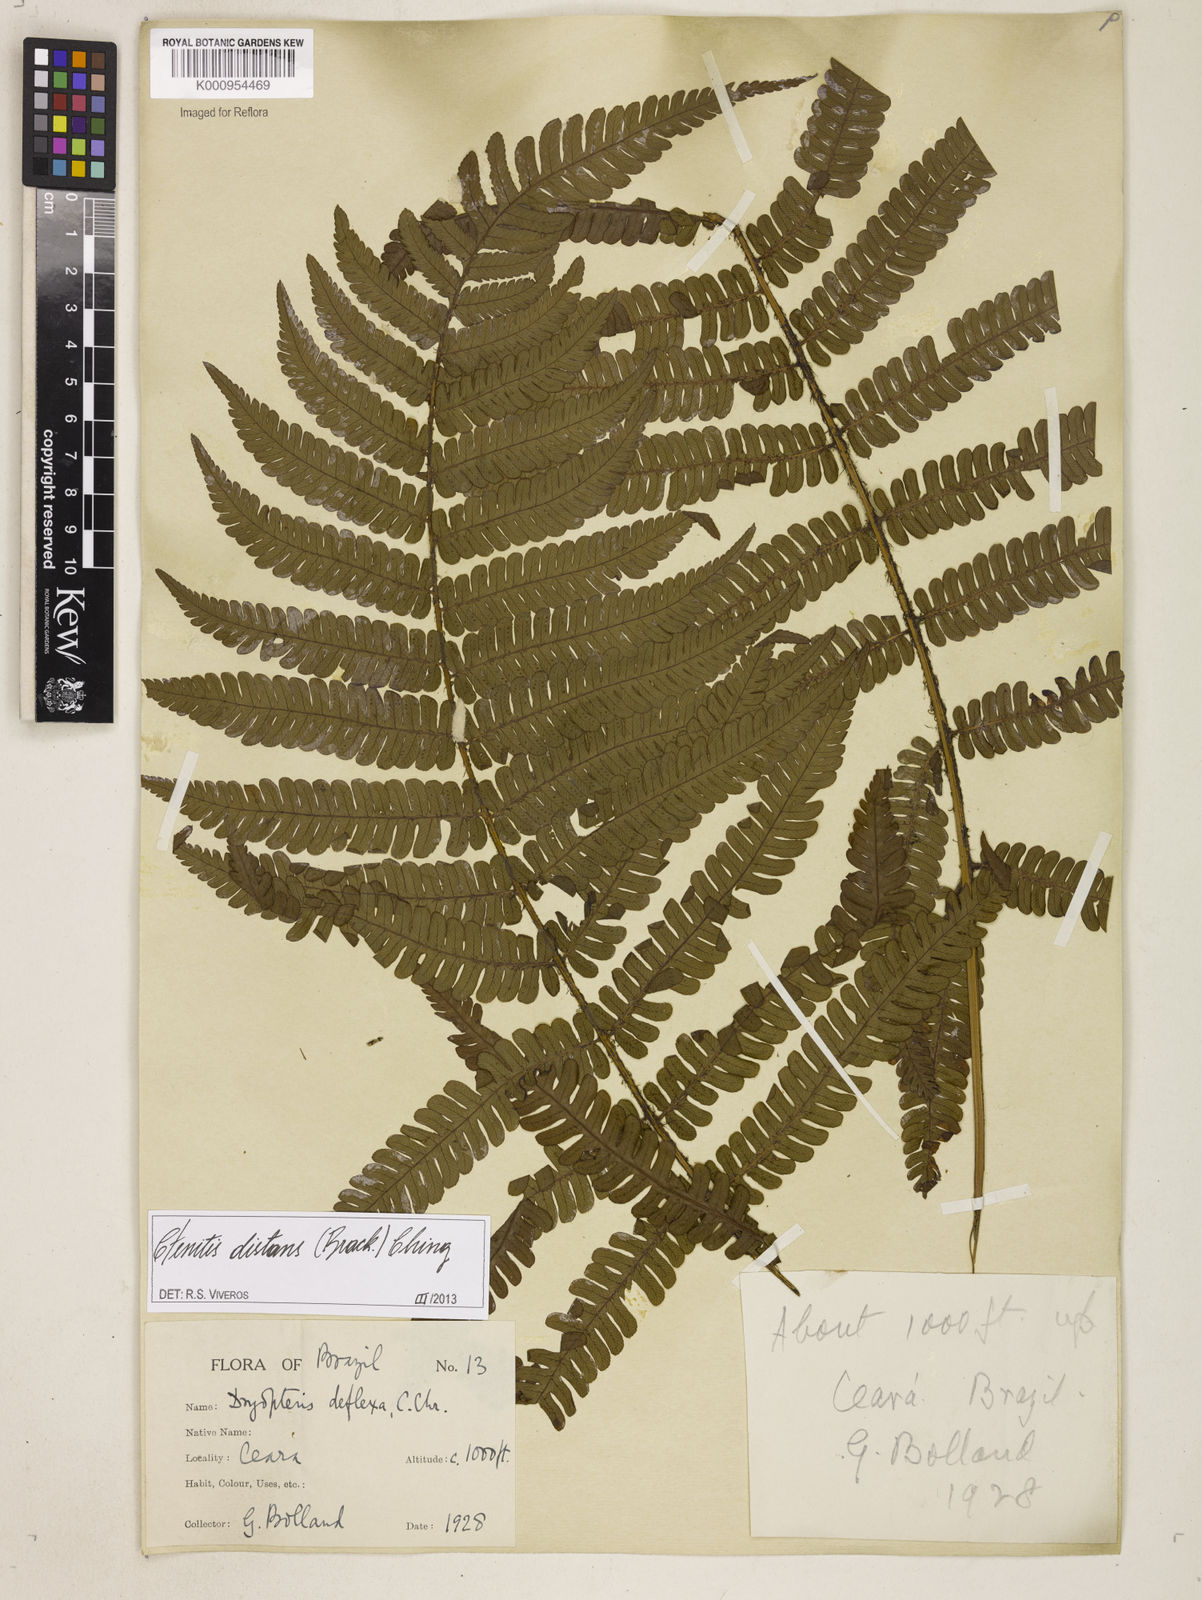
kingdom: Plantae
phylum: Tracheophyta
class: Polypodiopsida
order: Polypodiales
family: Dryopteridaceae
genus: Ctenitis
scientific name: Ctenitis distans
